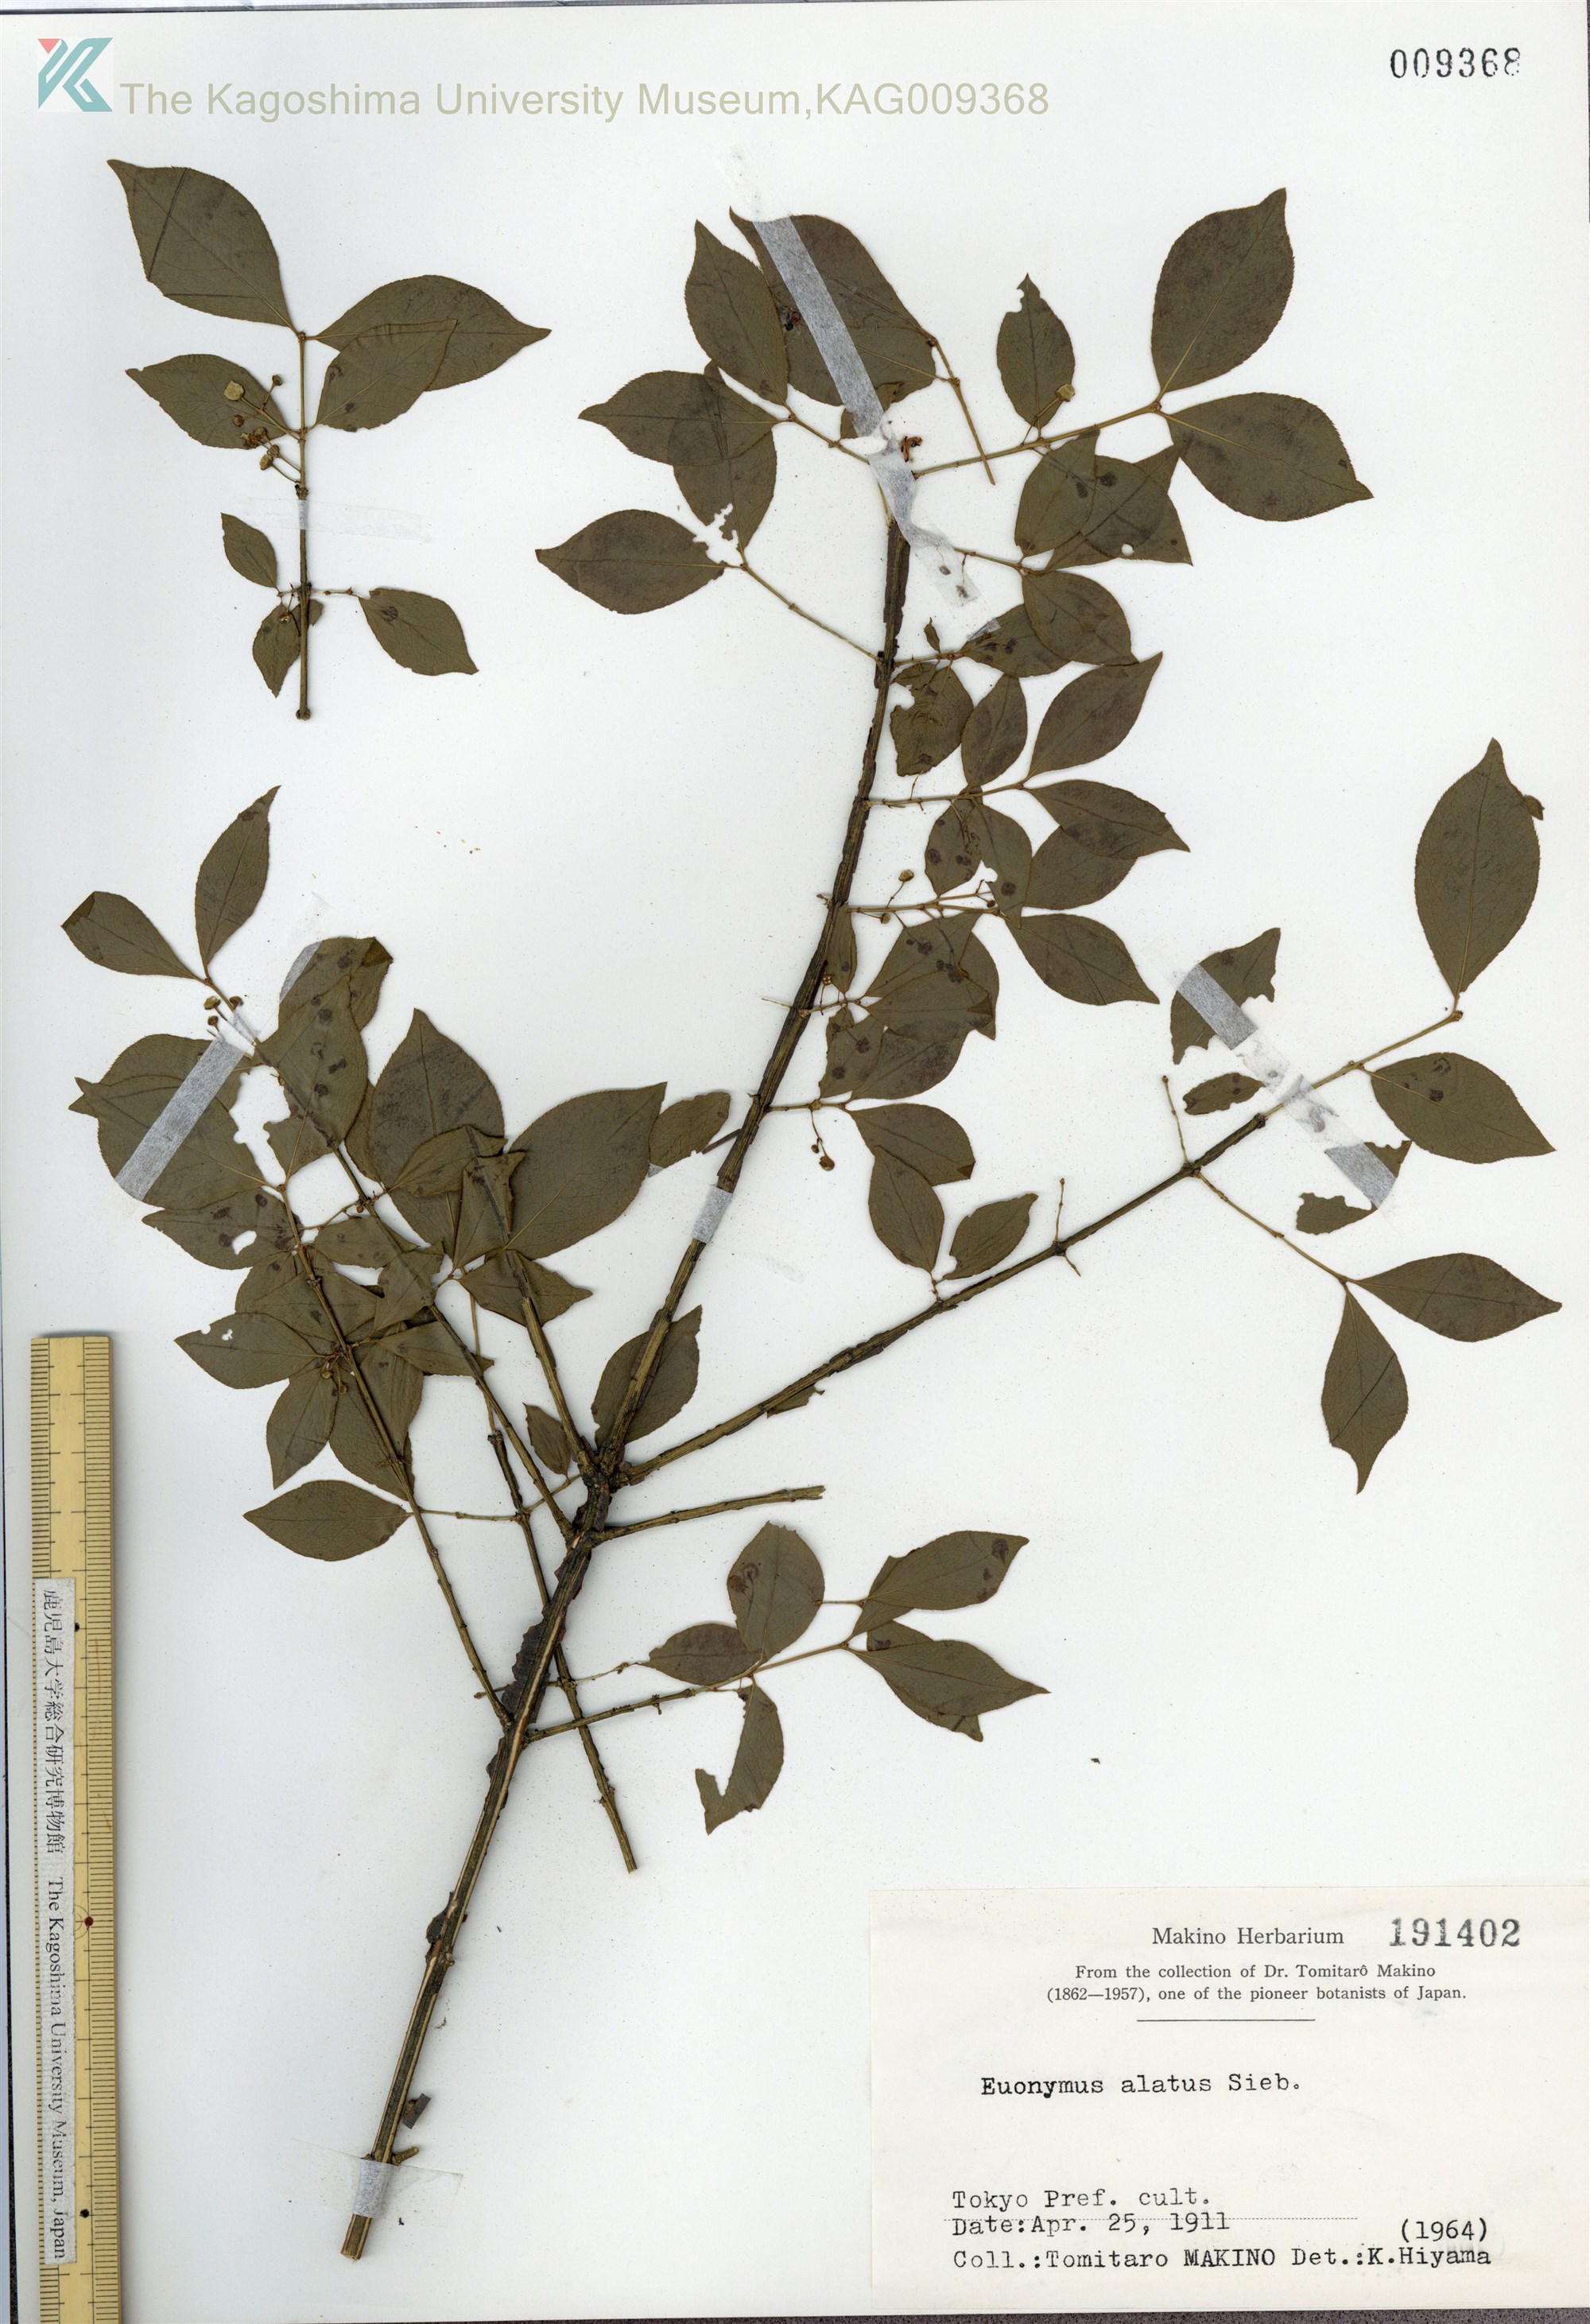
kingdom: Plantae
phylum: Tracheophyta
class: Magnoliopsida
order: Celastrales
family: Celastraceae
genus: Euonymus
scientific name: Euonymus alatus
